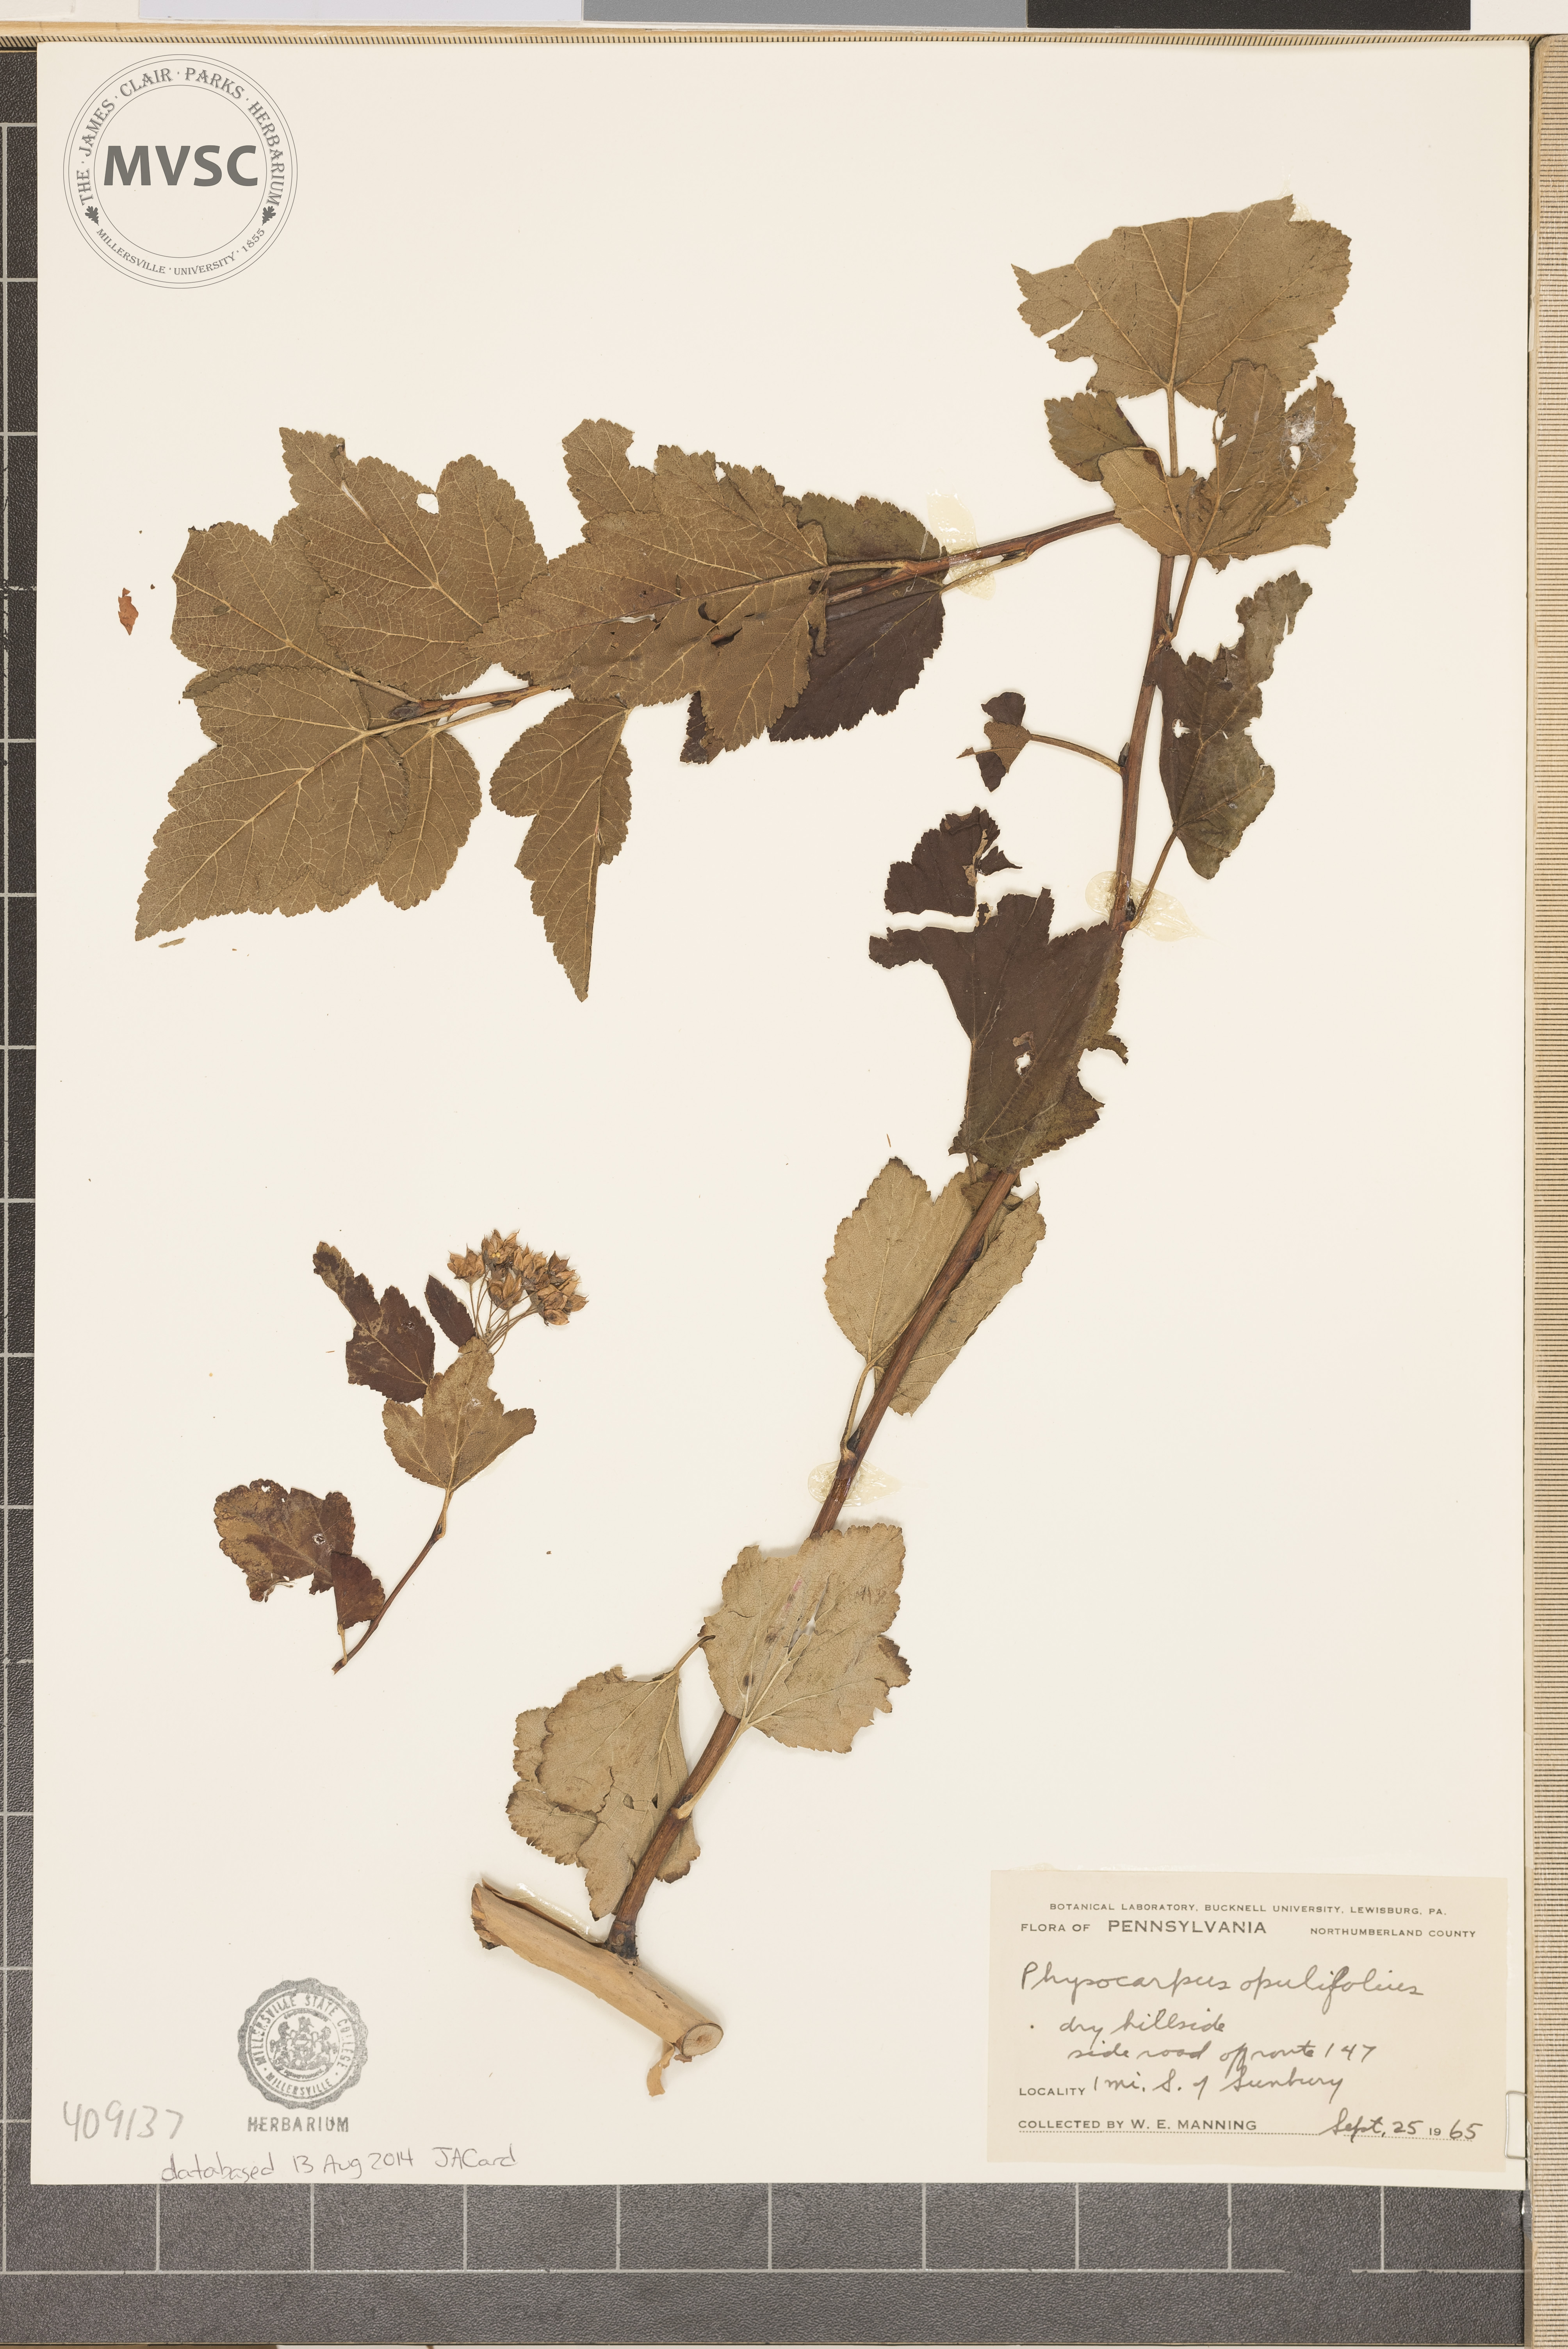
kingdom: Plantae
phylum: Tracheophyta
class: Magnoliopsida
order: Rosales
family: Rosaceae
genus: Physocarpus
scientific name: Physocarpus opulifolius
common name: Ninebark
